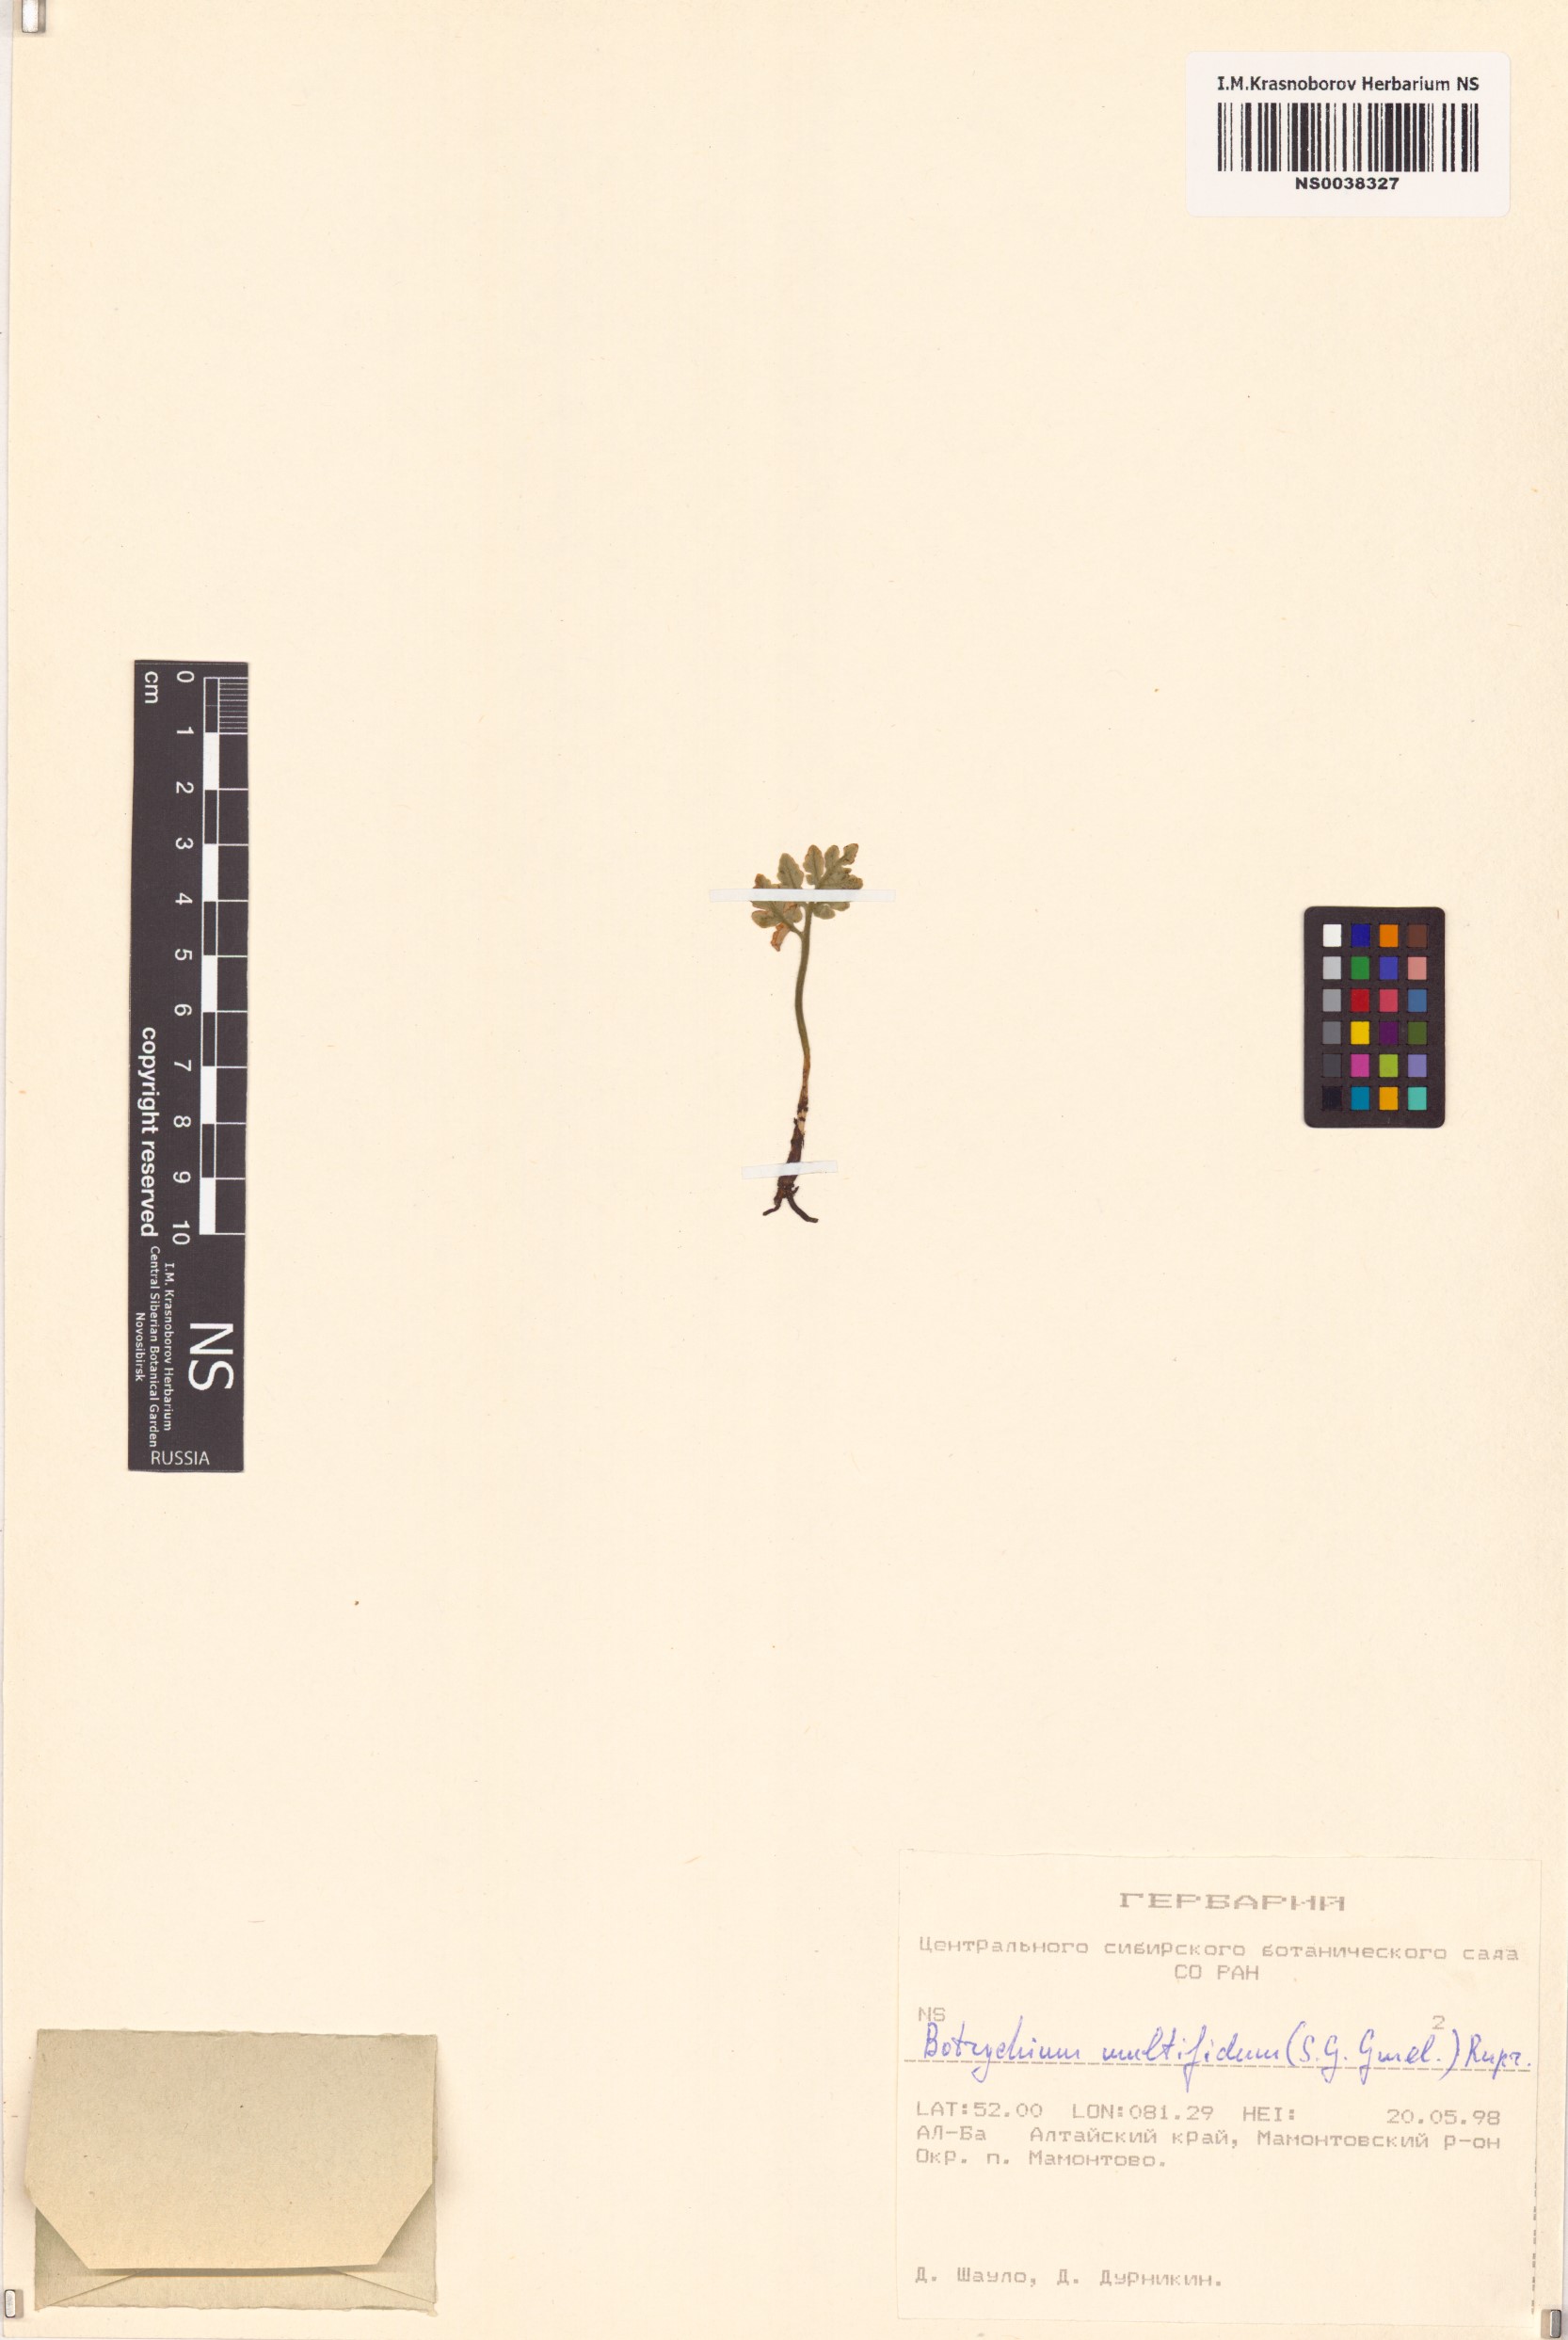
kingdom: Plantae
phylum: Tracheophyta
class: Polypodiopsida
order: Ophioglossales
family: Ophioglossaceae
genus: Sceptridium
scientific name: Sceptridium multifidum
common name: Leathery grape fern
